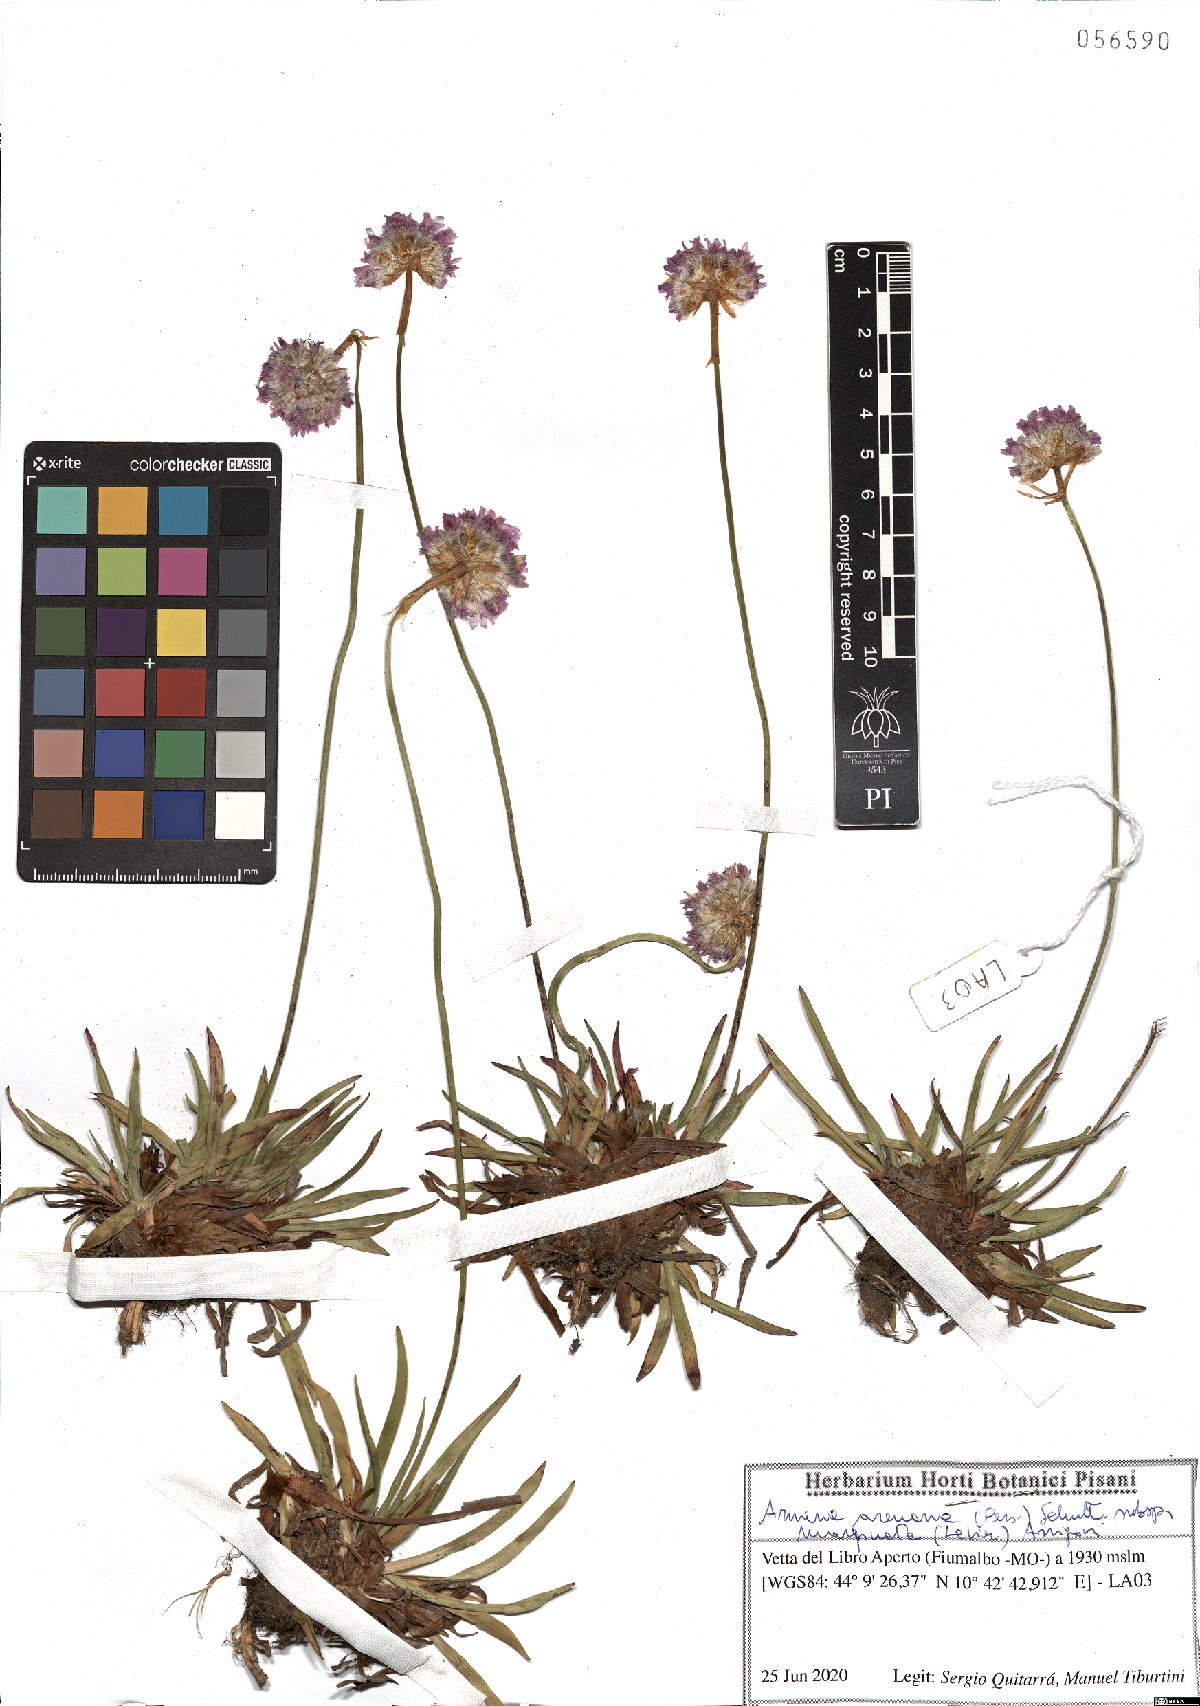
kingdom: Plantae
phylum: Tracheophyta
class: Magnoliopsida
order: Caryophyllales
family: Plumbaginaceae
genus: Armeria
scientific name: Armeria arenaria
